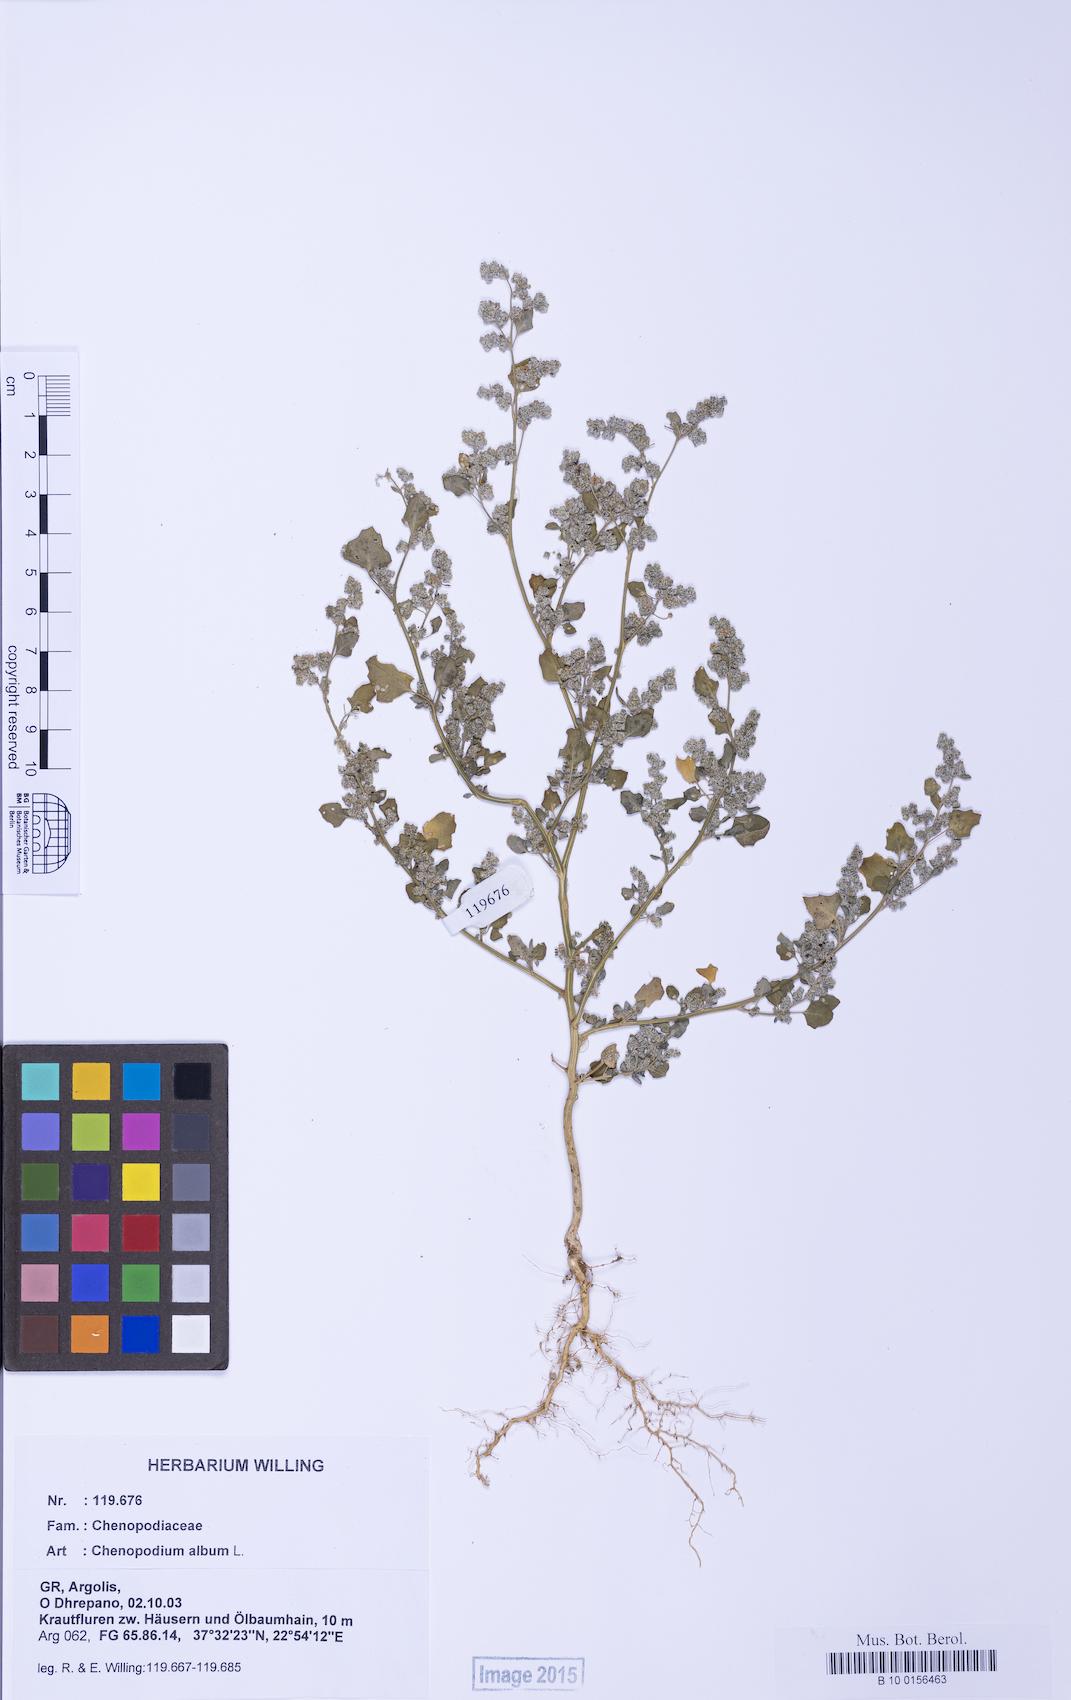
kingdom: Plantae
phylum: Tracheophyta
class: Magnoliopsida
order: Caryophyllales
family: Amaranthaceae
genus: Chenopodium
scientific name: Chenopodium opulifolium
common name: Grey goosefoot
